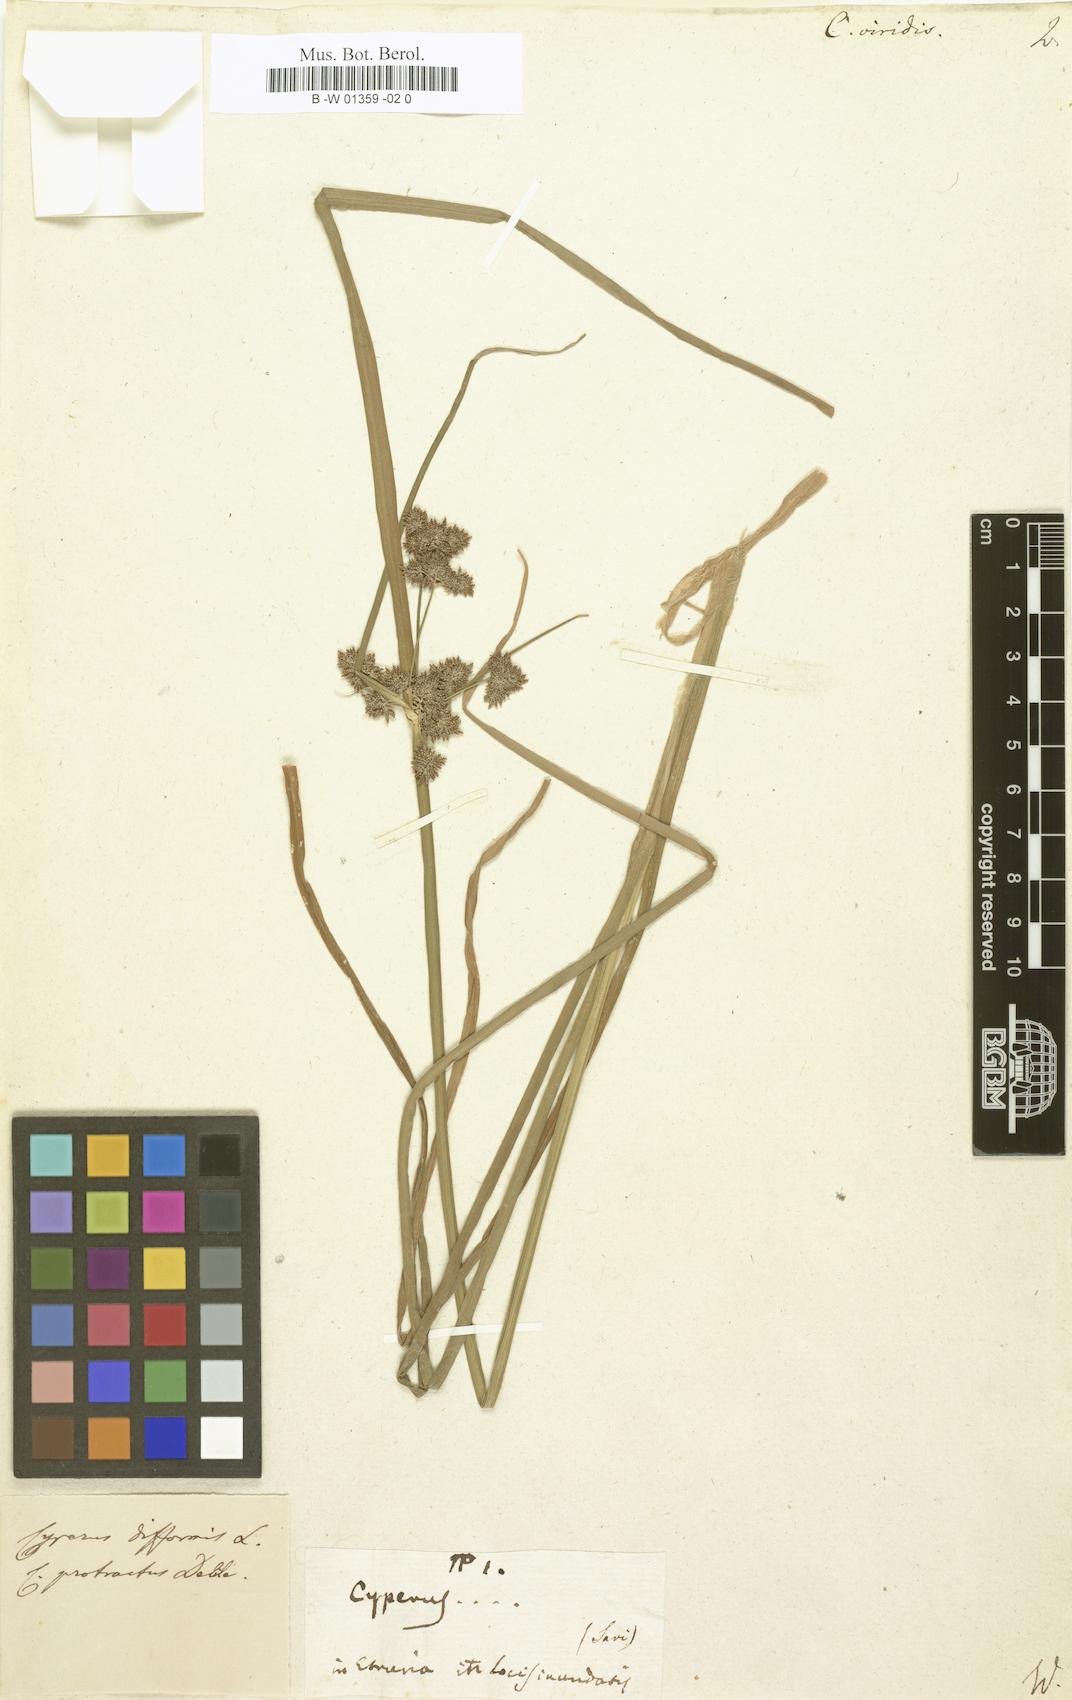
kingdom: Plantae
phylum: Tracheophyta
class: Liliopsida
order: Poales
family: Cyperaceae
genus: Cyperus
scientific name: Cyperus
